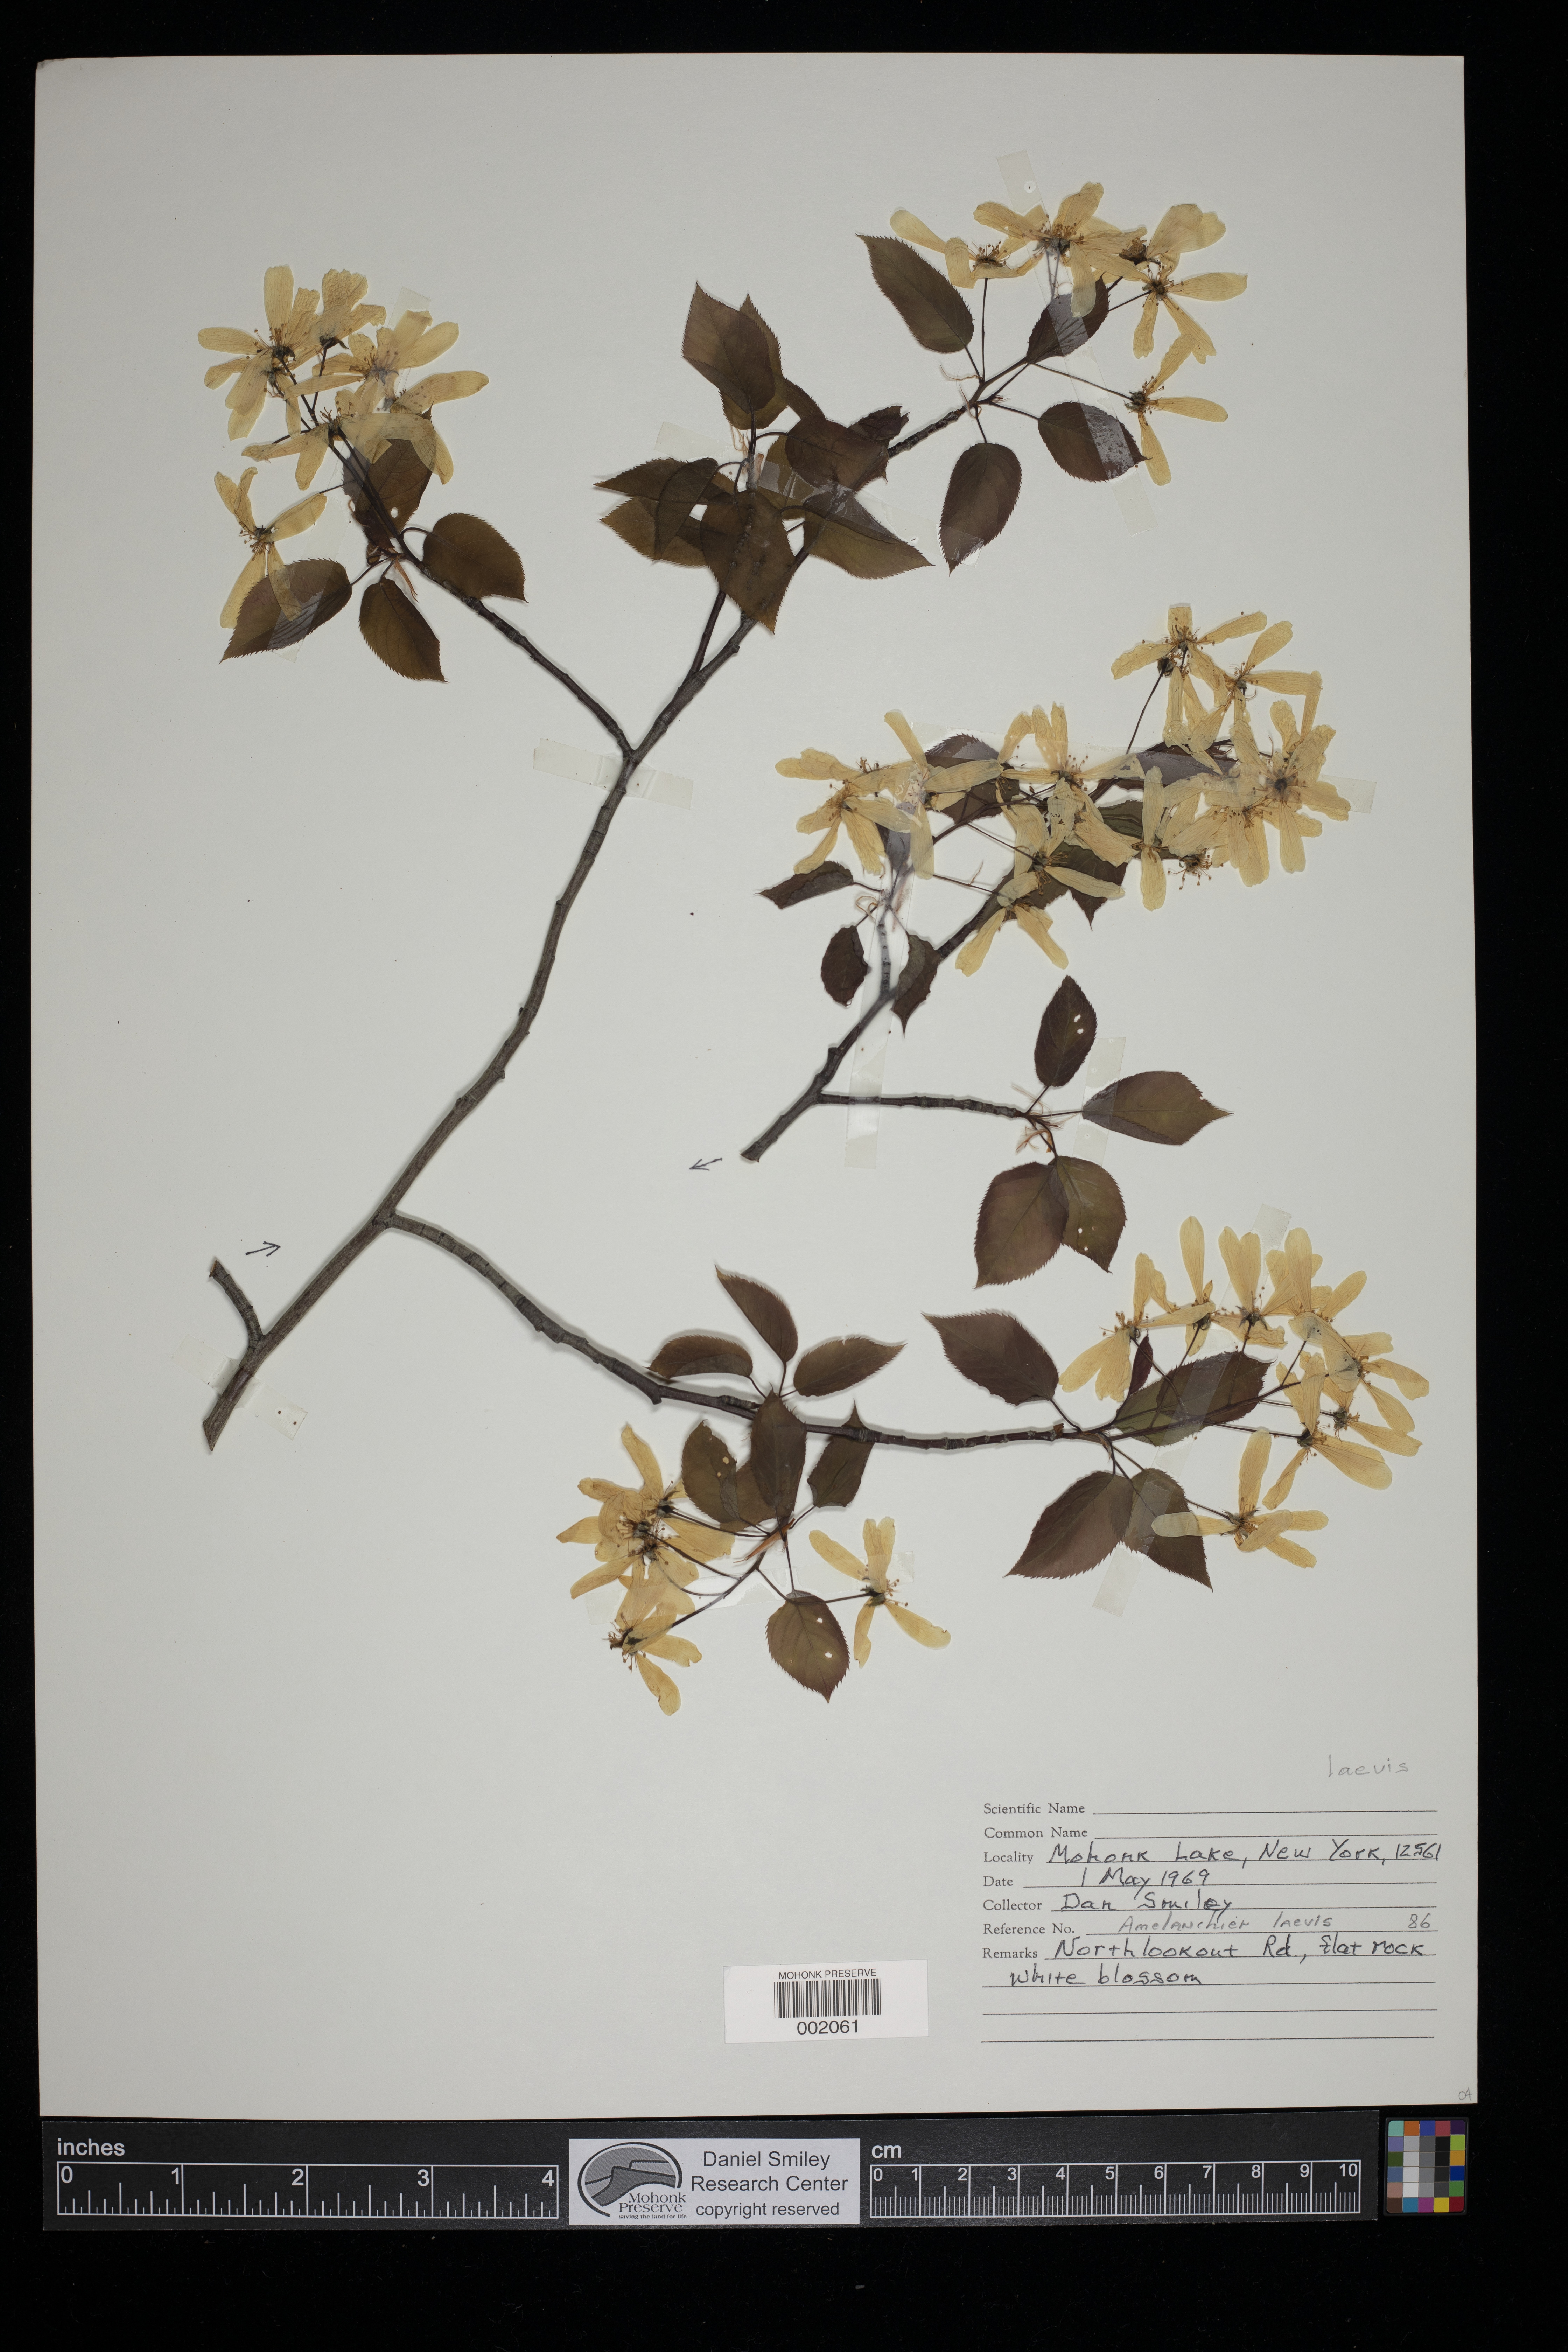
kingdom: Plantae
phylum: Tracheophyta
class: Magnoliopsida
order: Rosales
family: Rosaceae
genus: Amelanchier
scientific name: Amelanchier laevis
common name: Allegheny serviceberry
